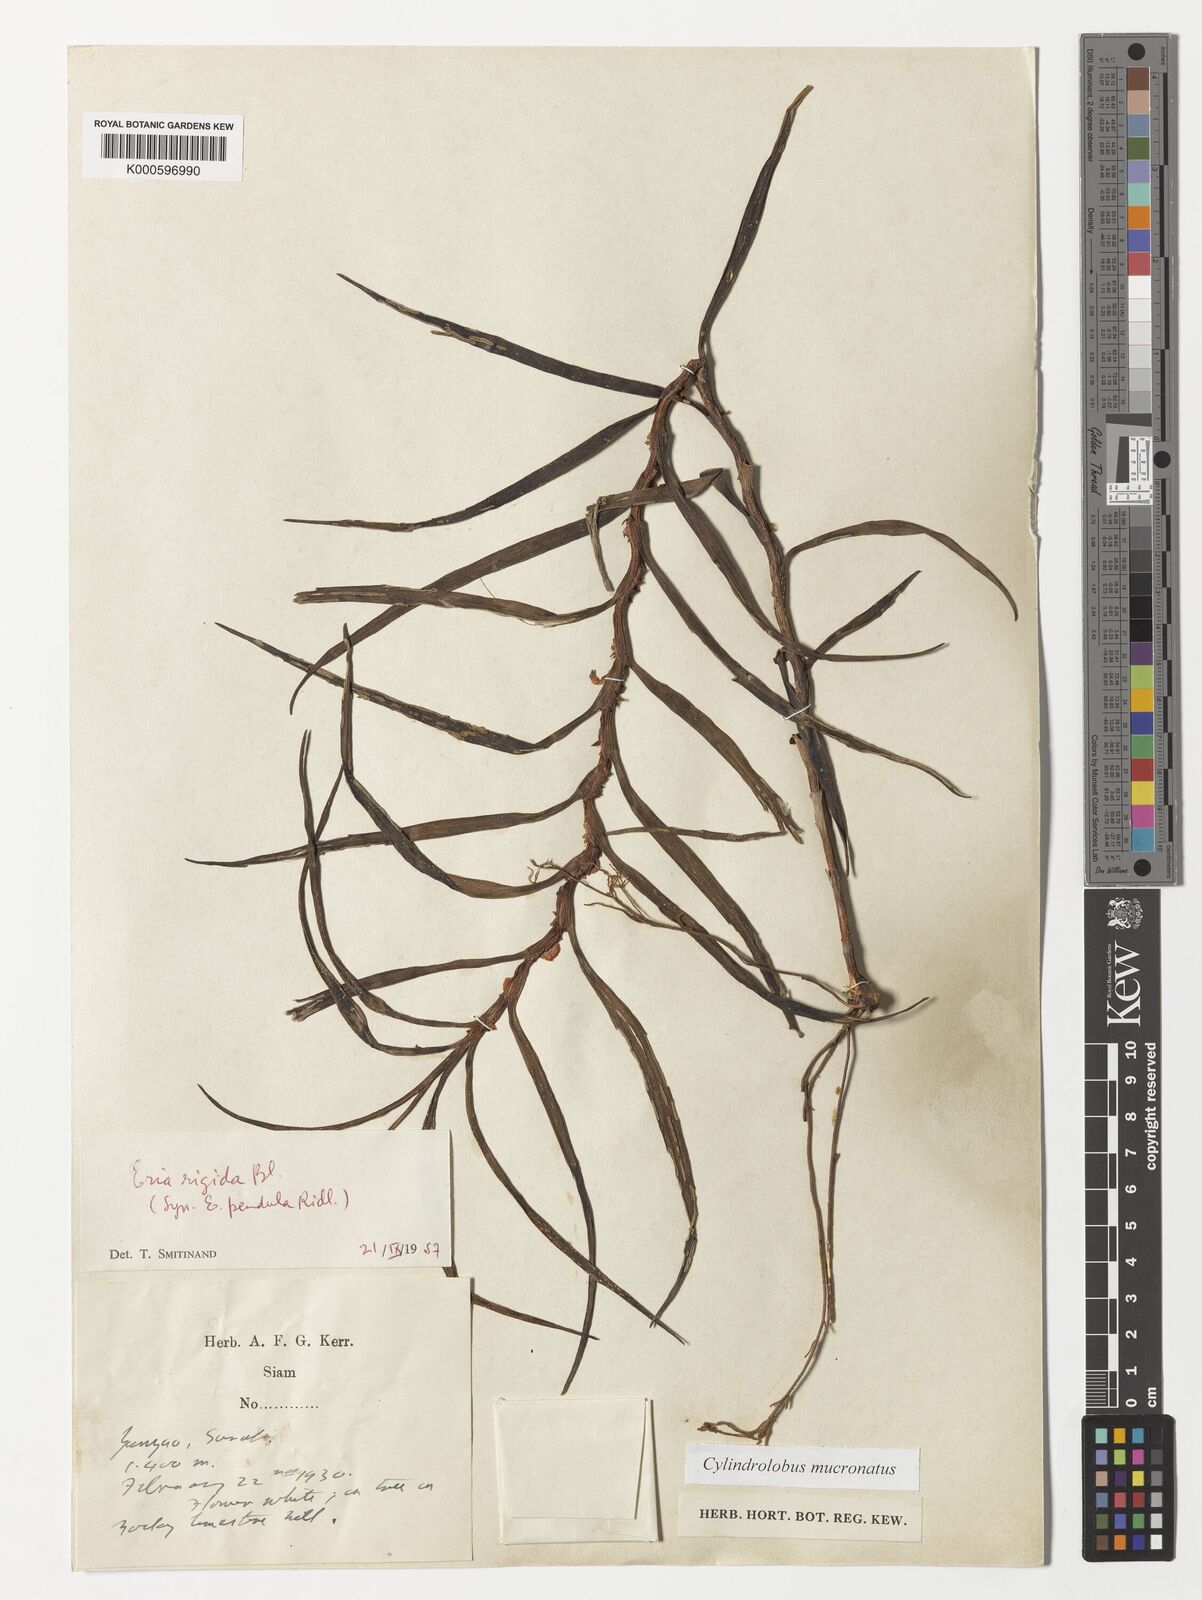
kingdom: Plantae
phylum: Tracheophyta
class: Liliopsida
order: Asparagales
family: Orchidaceae
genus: Cylindrolobus
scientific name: Cylindrolobus mucronatus
